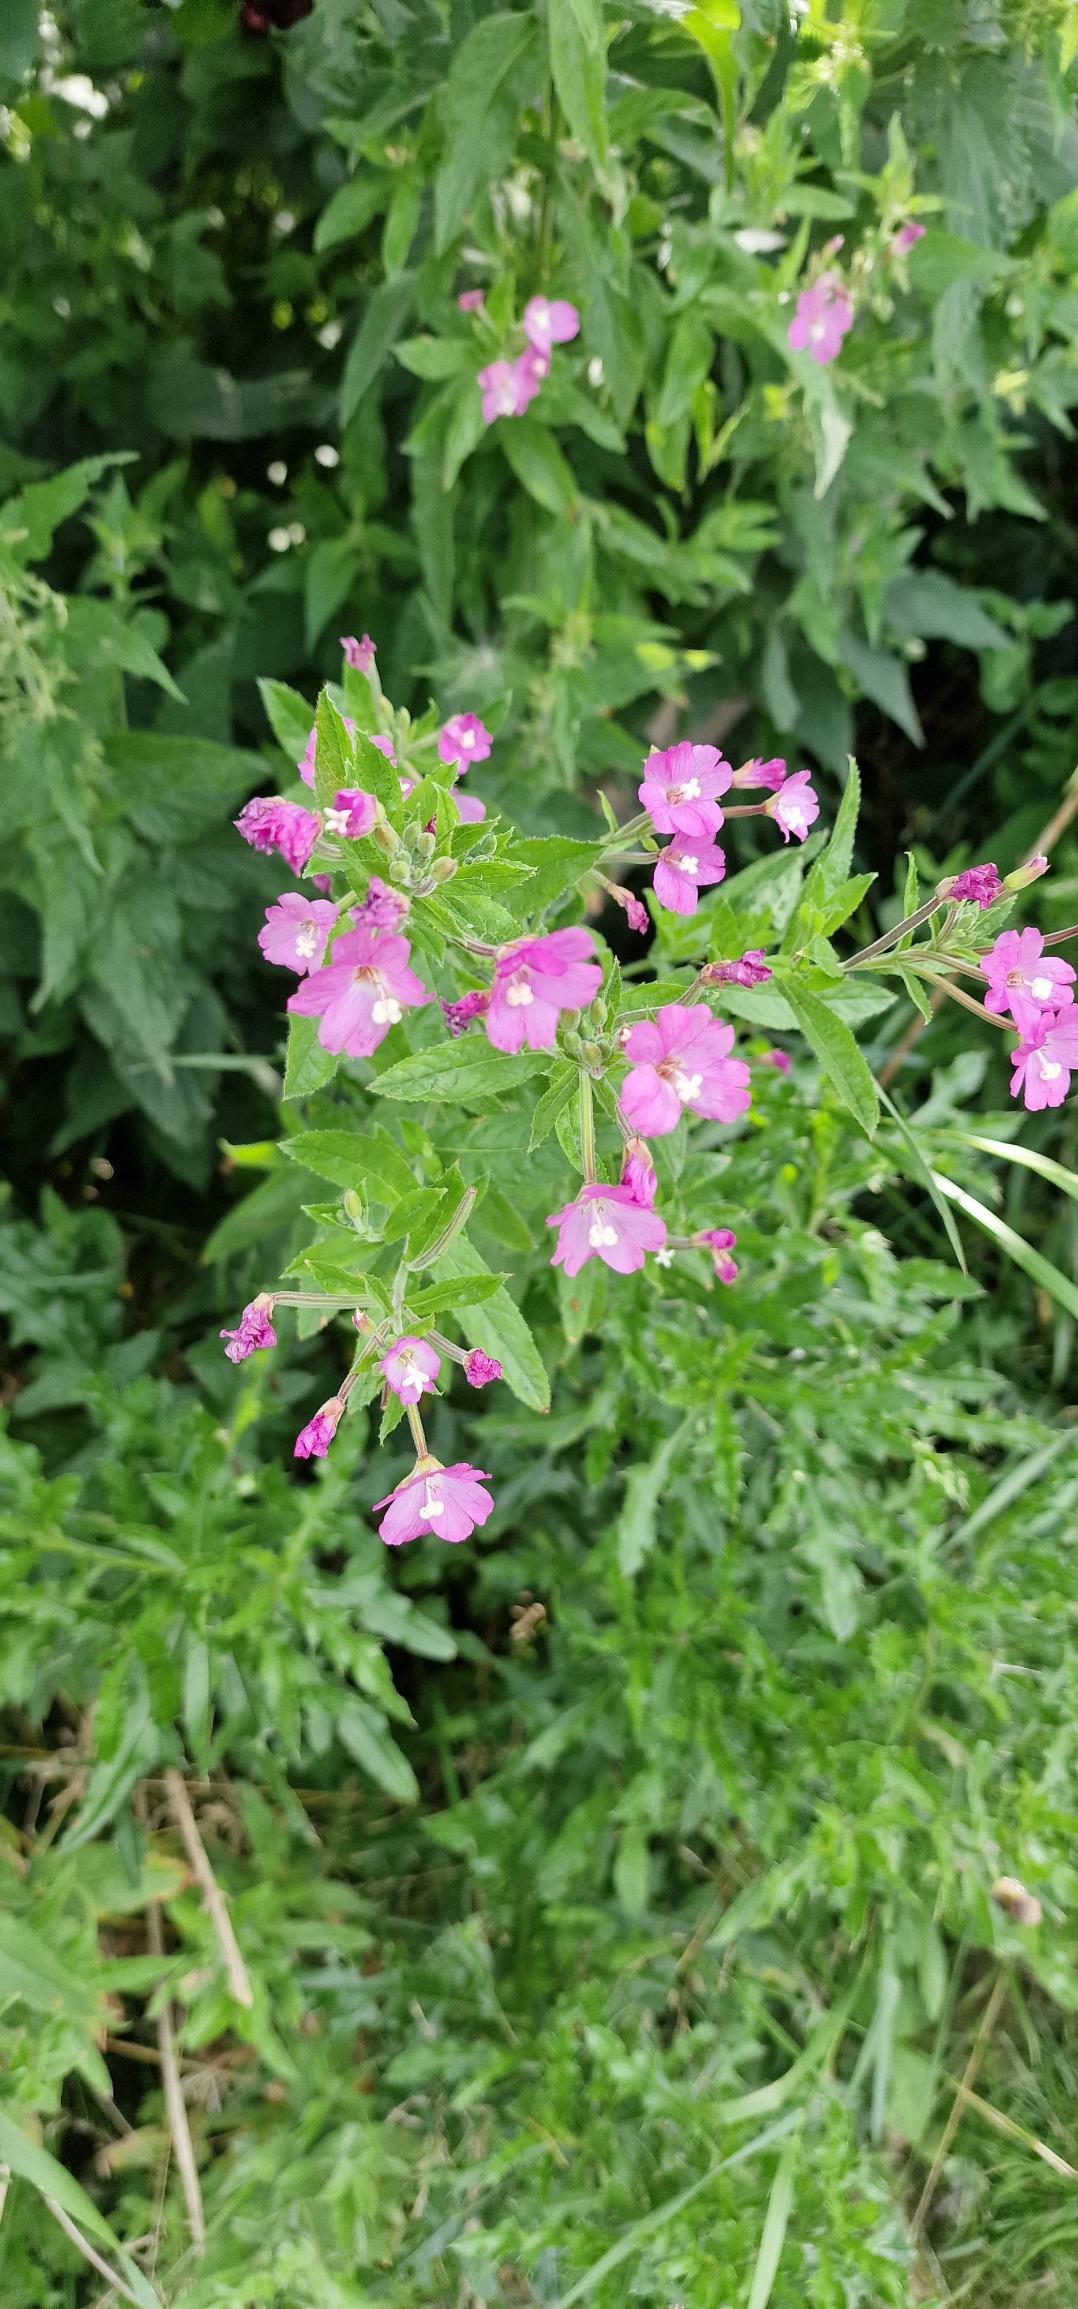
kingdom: Plantae
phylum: Tracheophyta
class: Magnoliopsida
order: Myrtales
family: Onagraceae
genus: Epilobium
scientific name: Epilobium hirsutum
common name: Lådden dueurt
